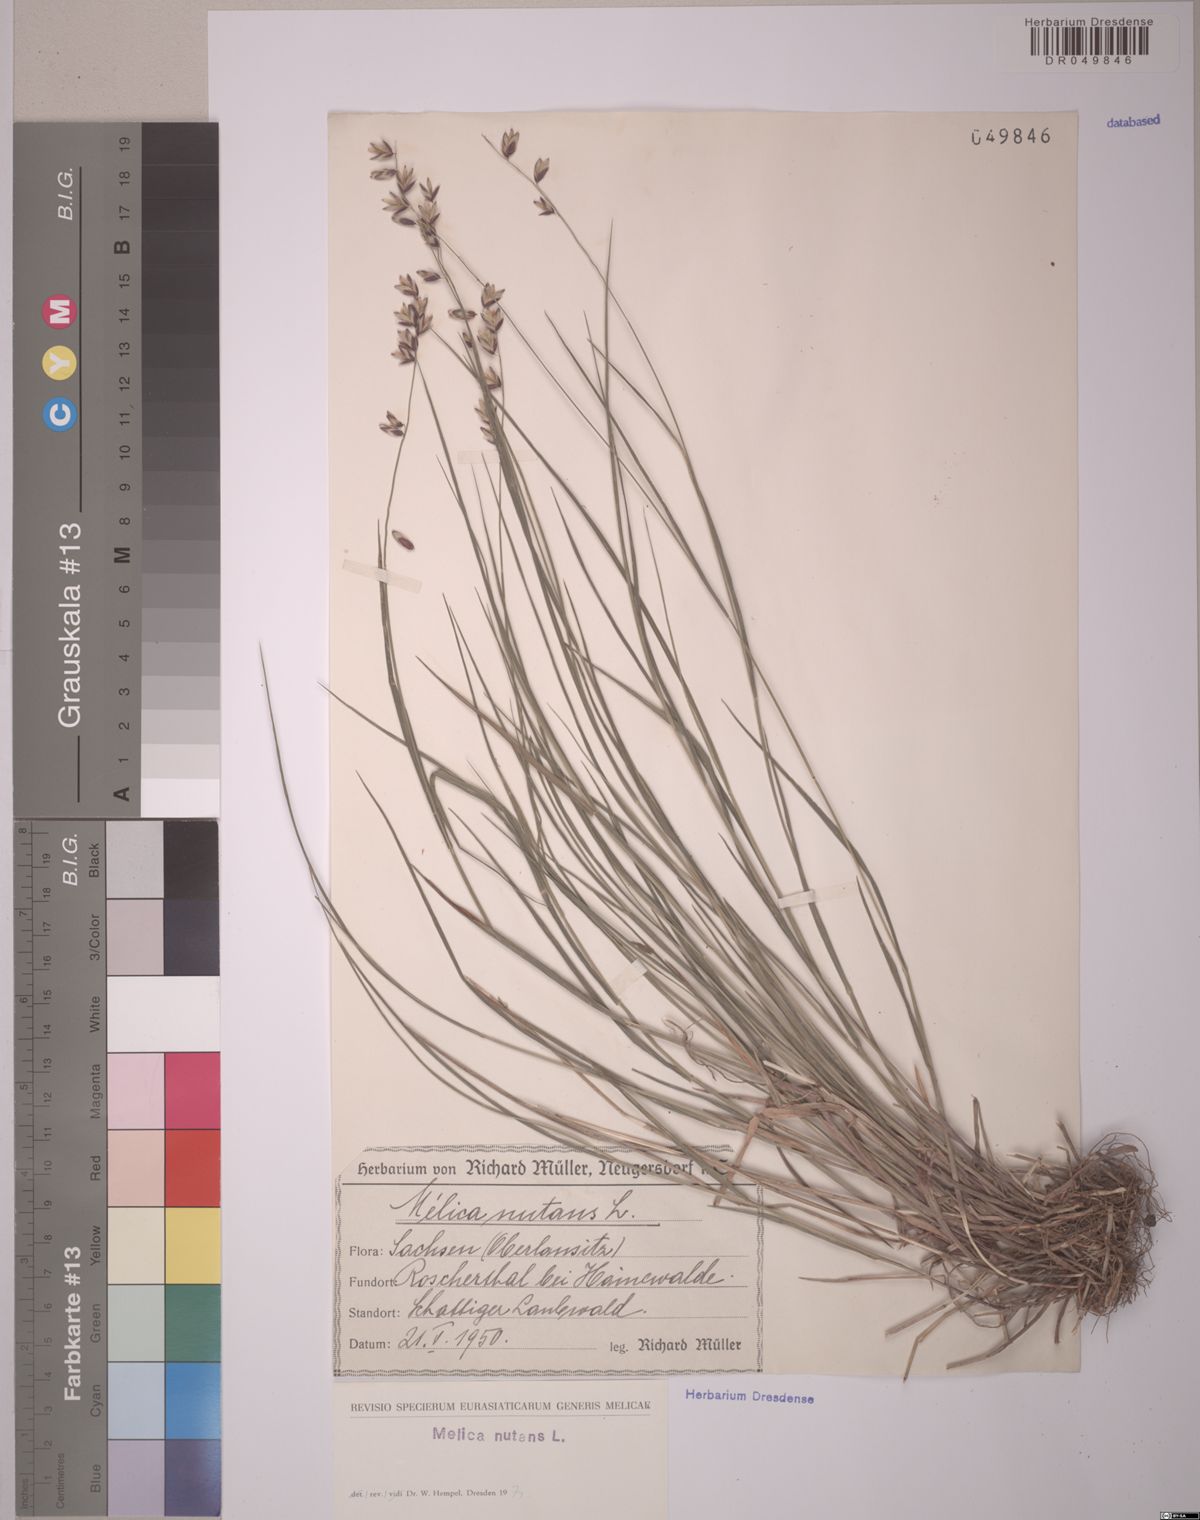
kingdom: Plantae
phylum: Tracheophyta
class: Liliopsida
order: Poales
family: Poaceae
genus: Melica
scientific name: Melica nutans
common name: Mountain melick
